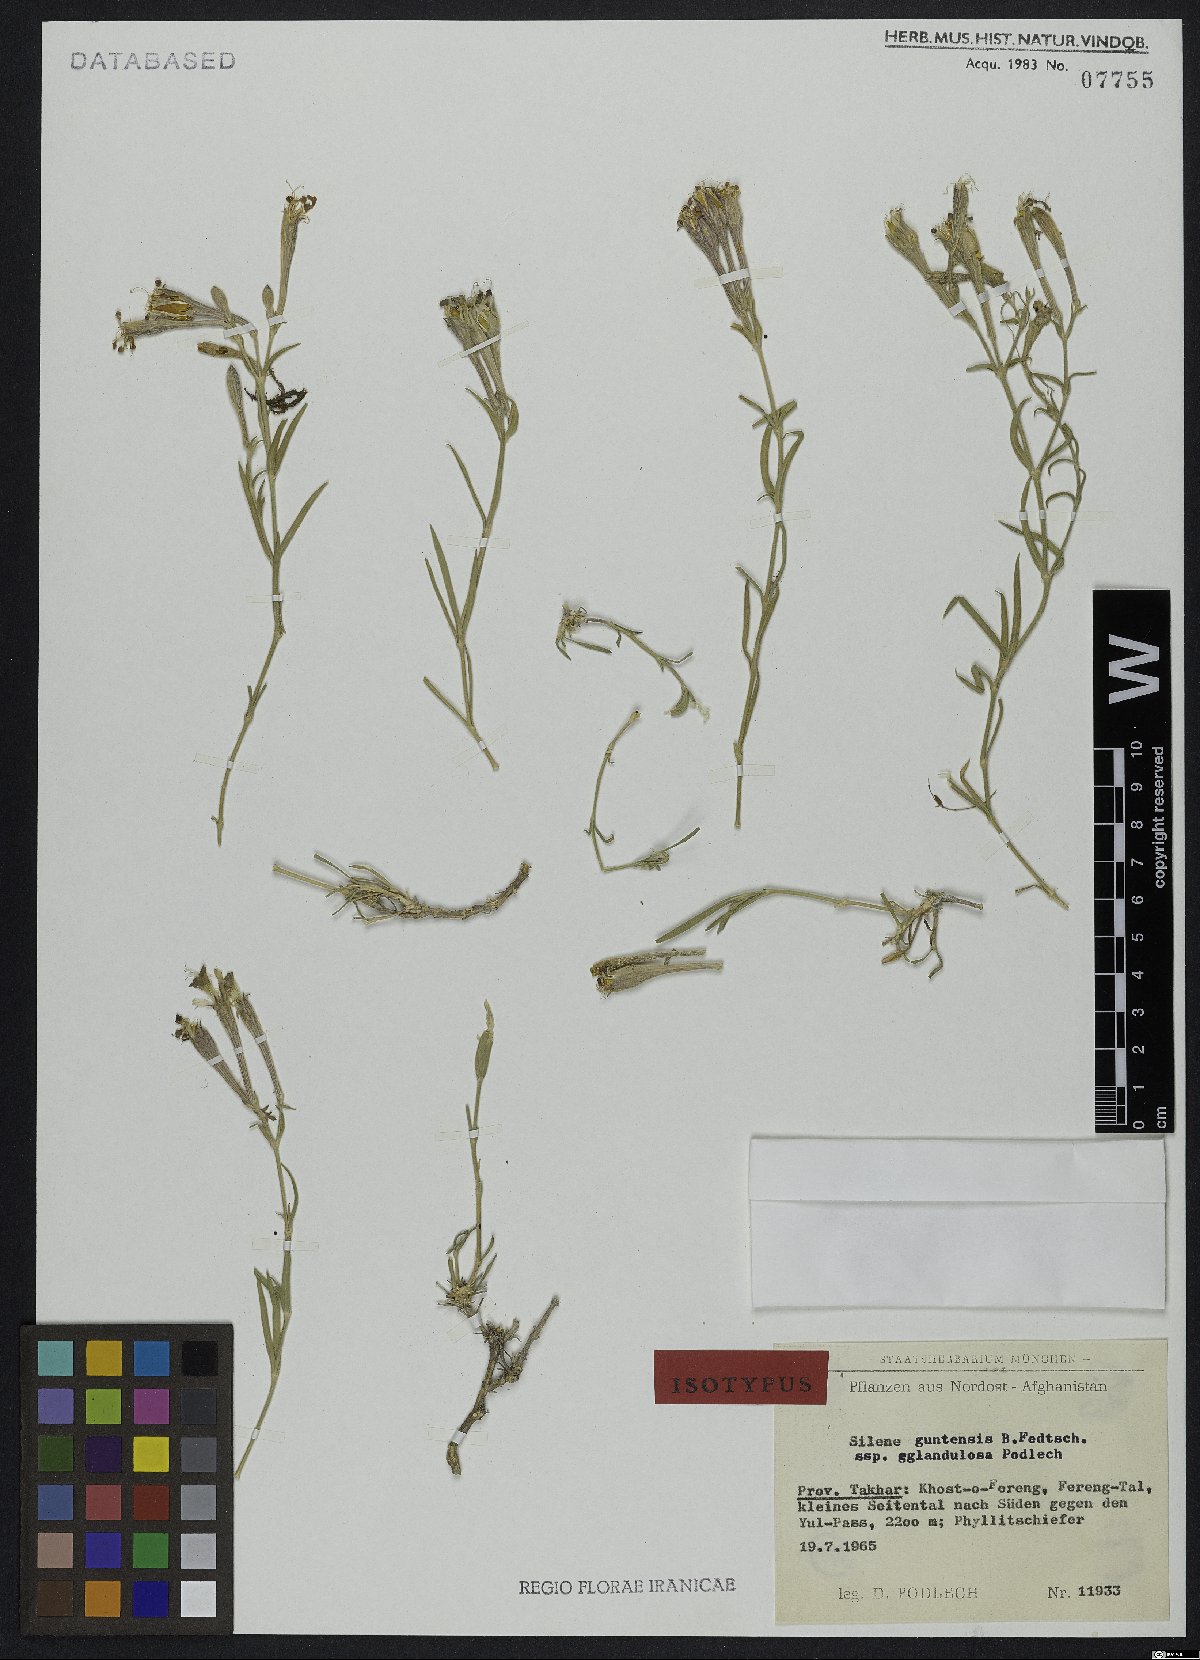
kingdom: Plantae
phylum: Tracheophyta
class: Magnoliopsida
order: Caryophyllales
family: Caryophyllaceae
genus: Silene
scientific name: Silene kuschakewiczii
